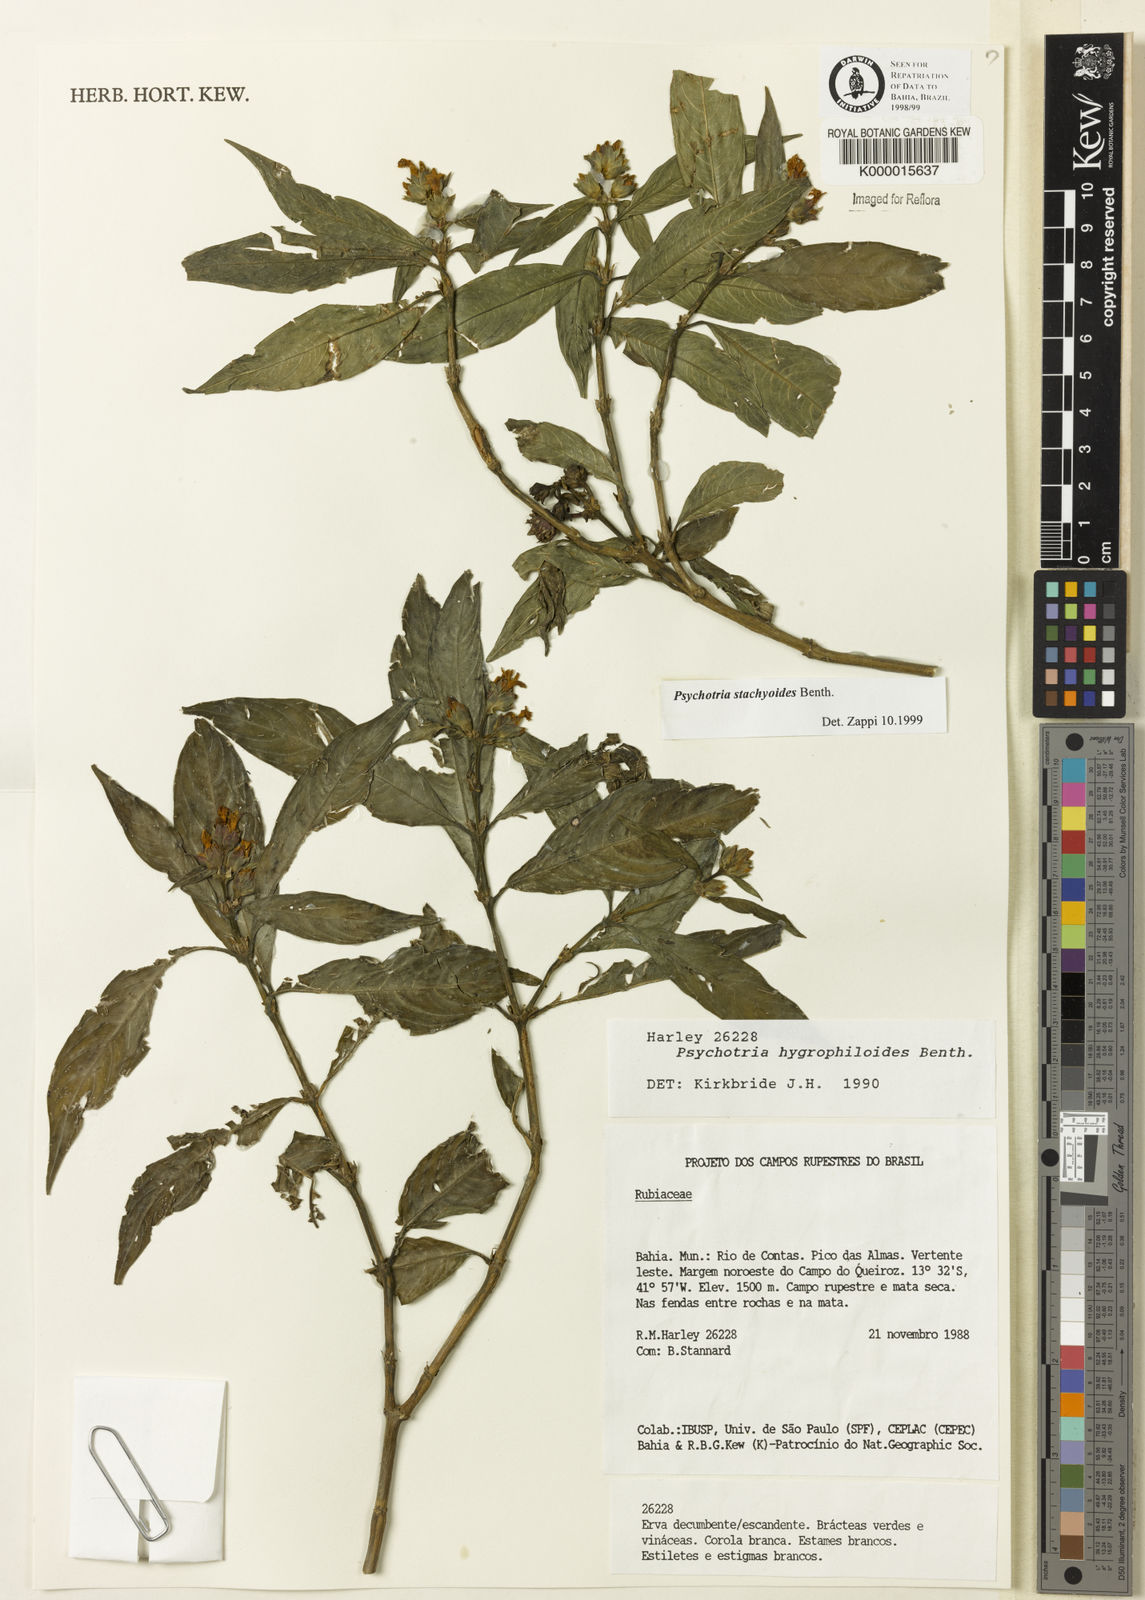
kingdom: Plantae
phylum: Tracheophyta
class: Magnoliopsida
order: Gentianales
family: Rubiaceae
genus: Psychotria
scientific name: Psychotria stachyoides
